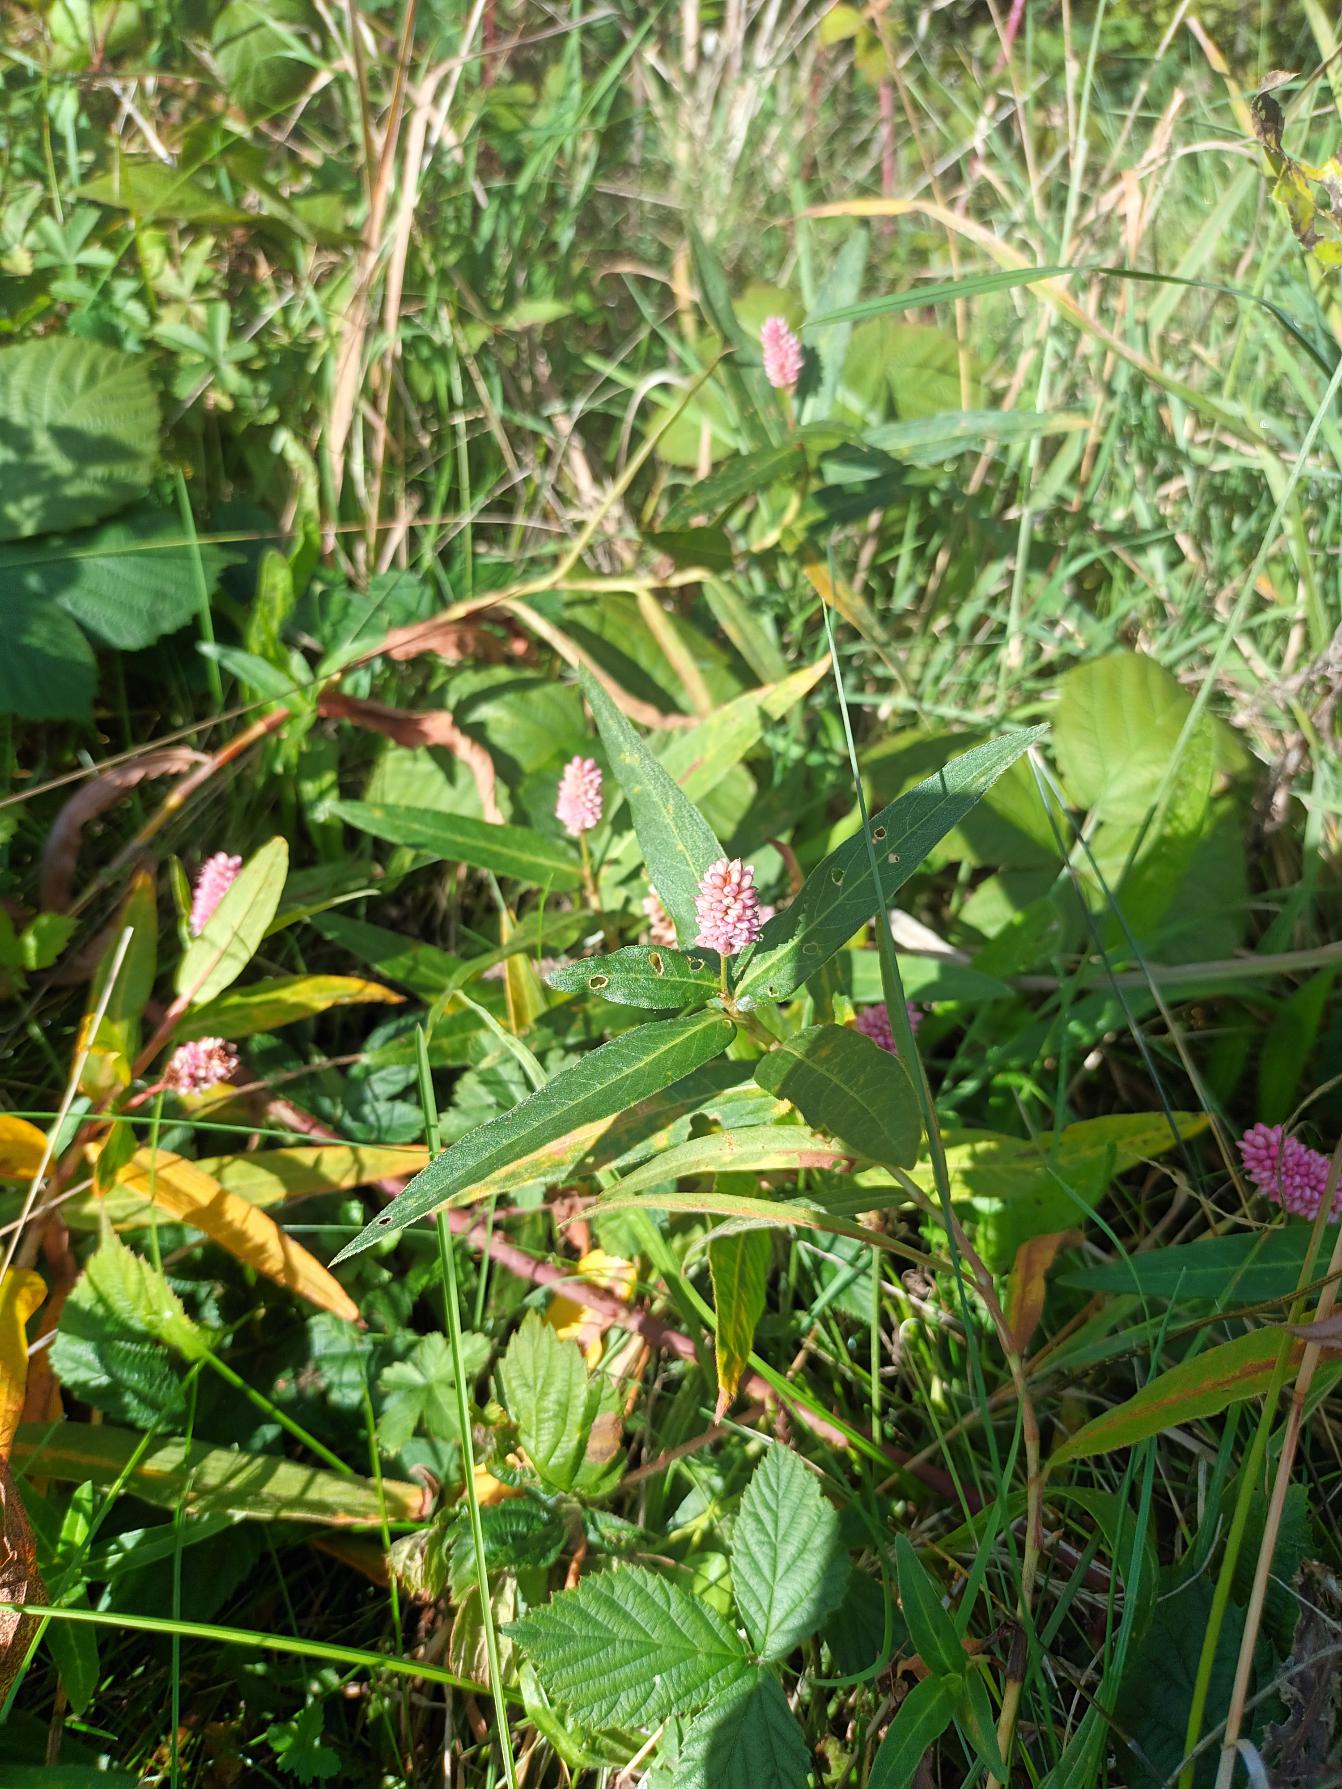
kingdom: Plantae
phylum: Tracheophyta
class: Magnoliopsida
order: Caryophyllales
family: Polygonaceae
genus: Persicaria
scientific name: Persicaria amphibia
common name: Vand-pileurt
